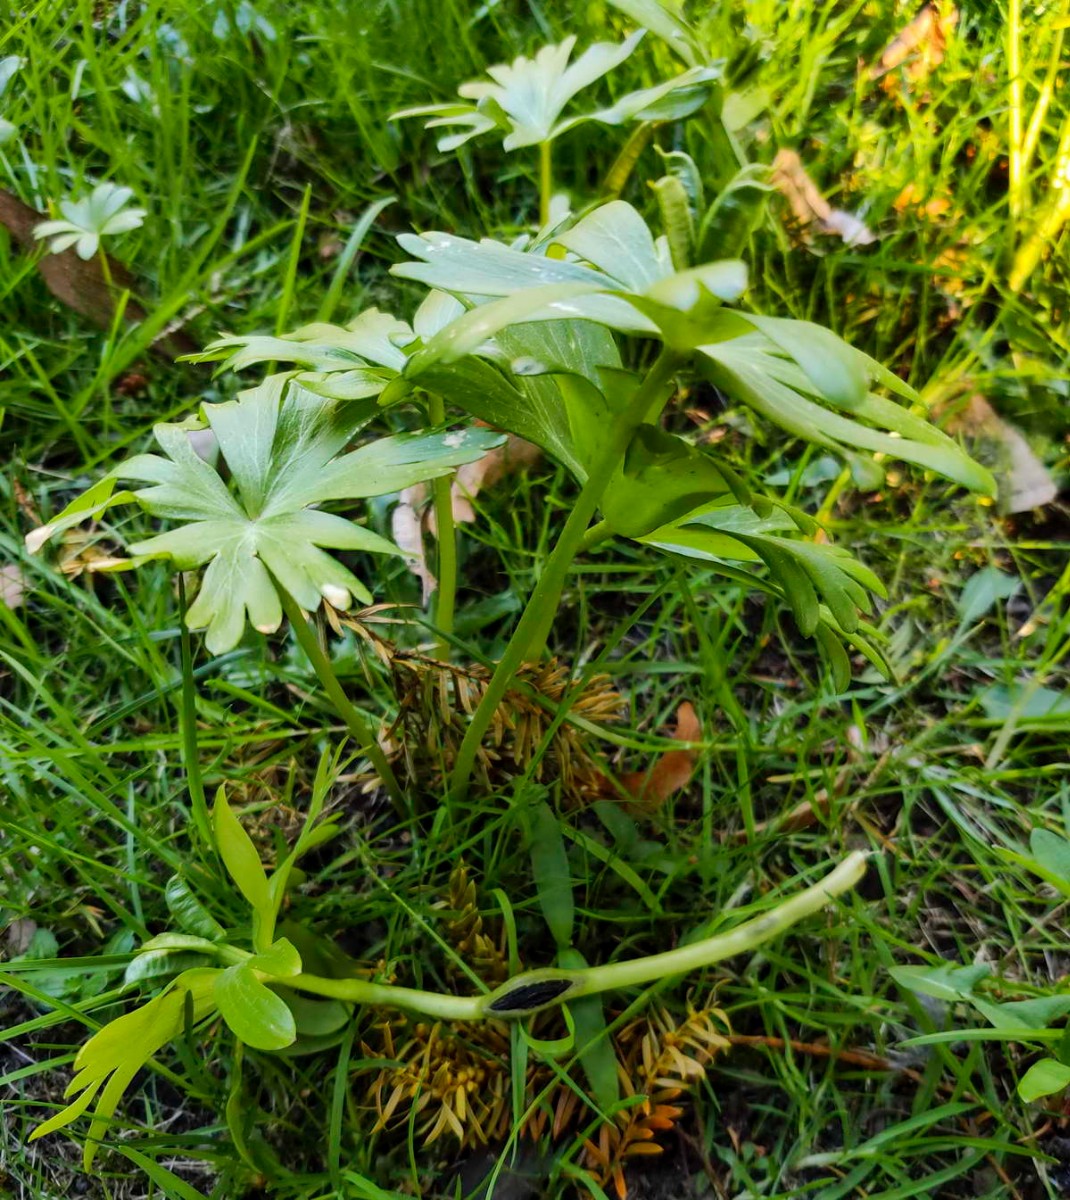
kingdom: Fungi
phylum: Basidiomycota
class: Ustilaginomycetes
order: Urocystidales
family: Urocystidaceae
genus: Urocystis
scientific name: Urocystis eranthidis
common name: erantis-brand
